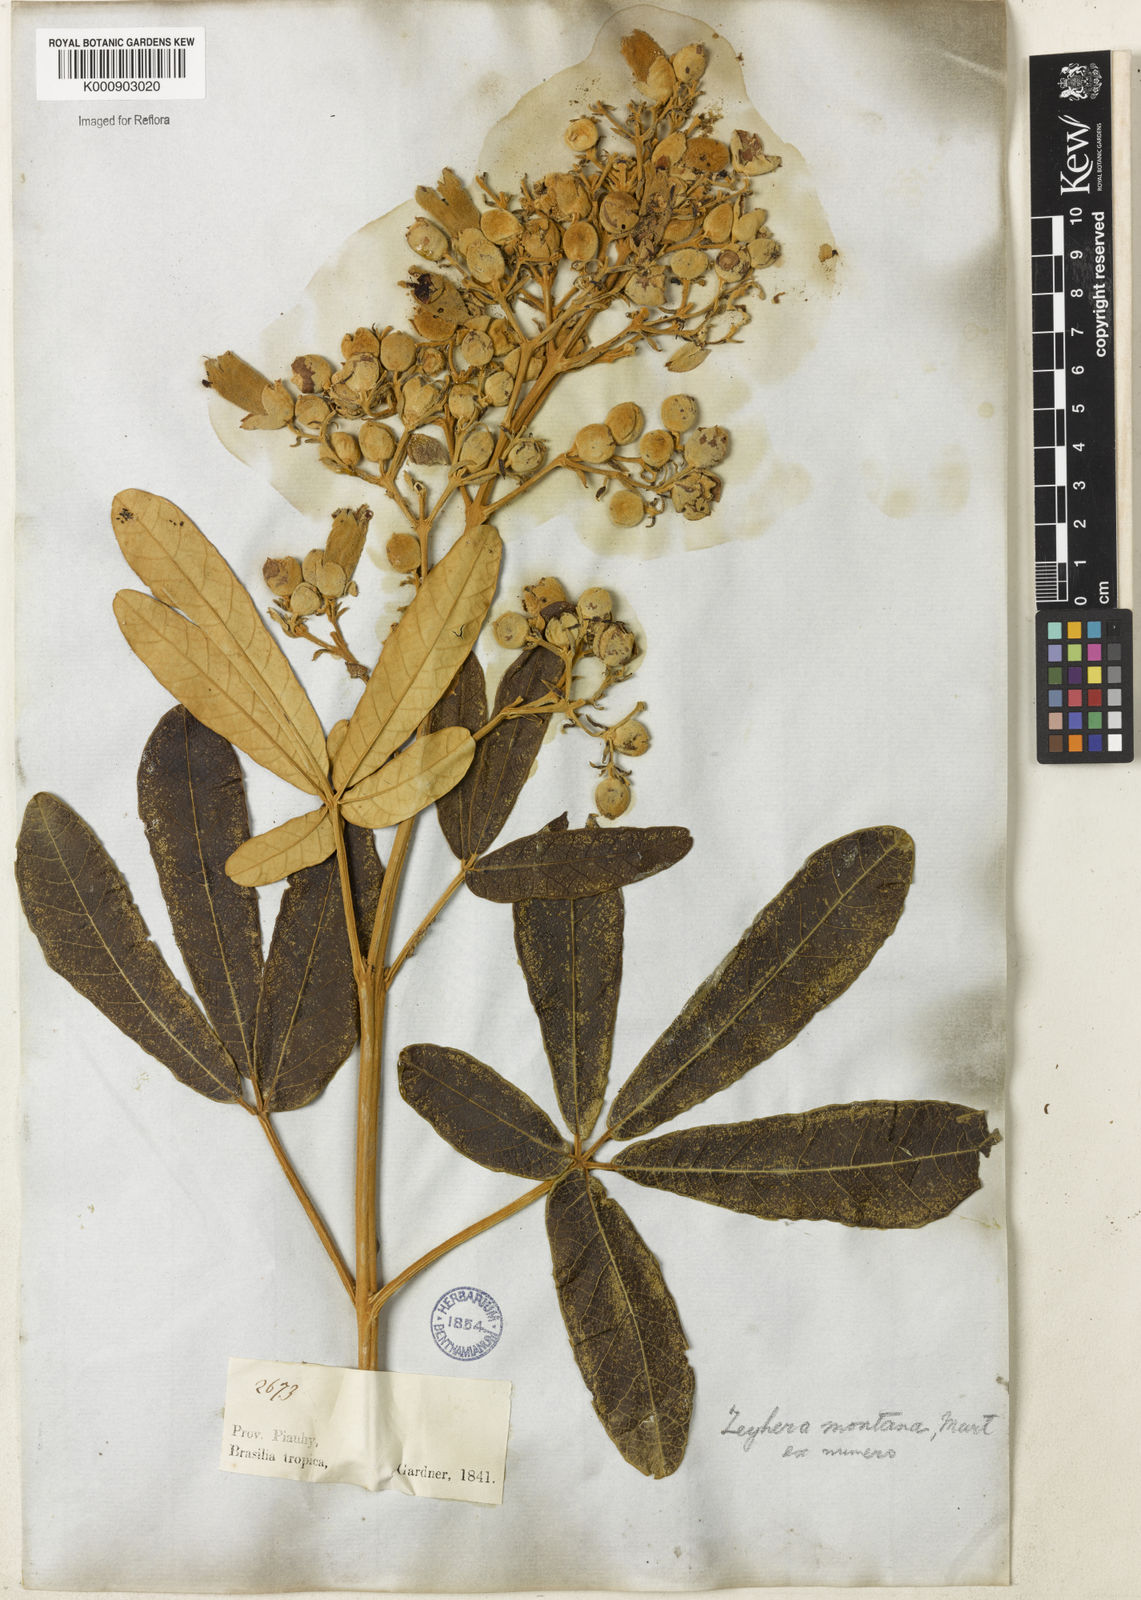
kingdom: Plantae
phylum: Tracheophyta
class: Magnoliopsida
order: Lamiales
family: Bignoniaceae
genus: Zeyheria
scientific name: Zeyheria montana
